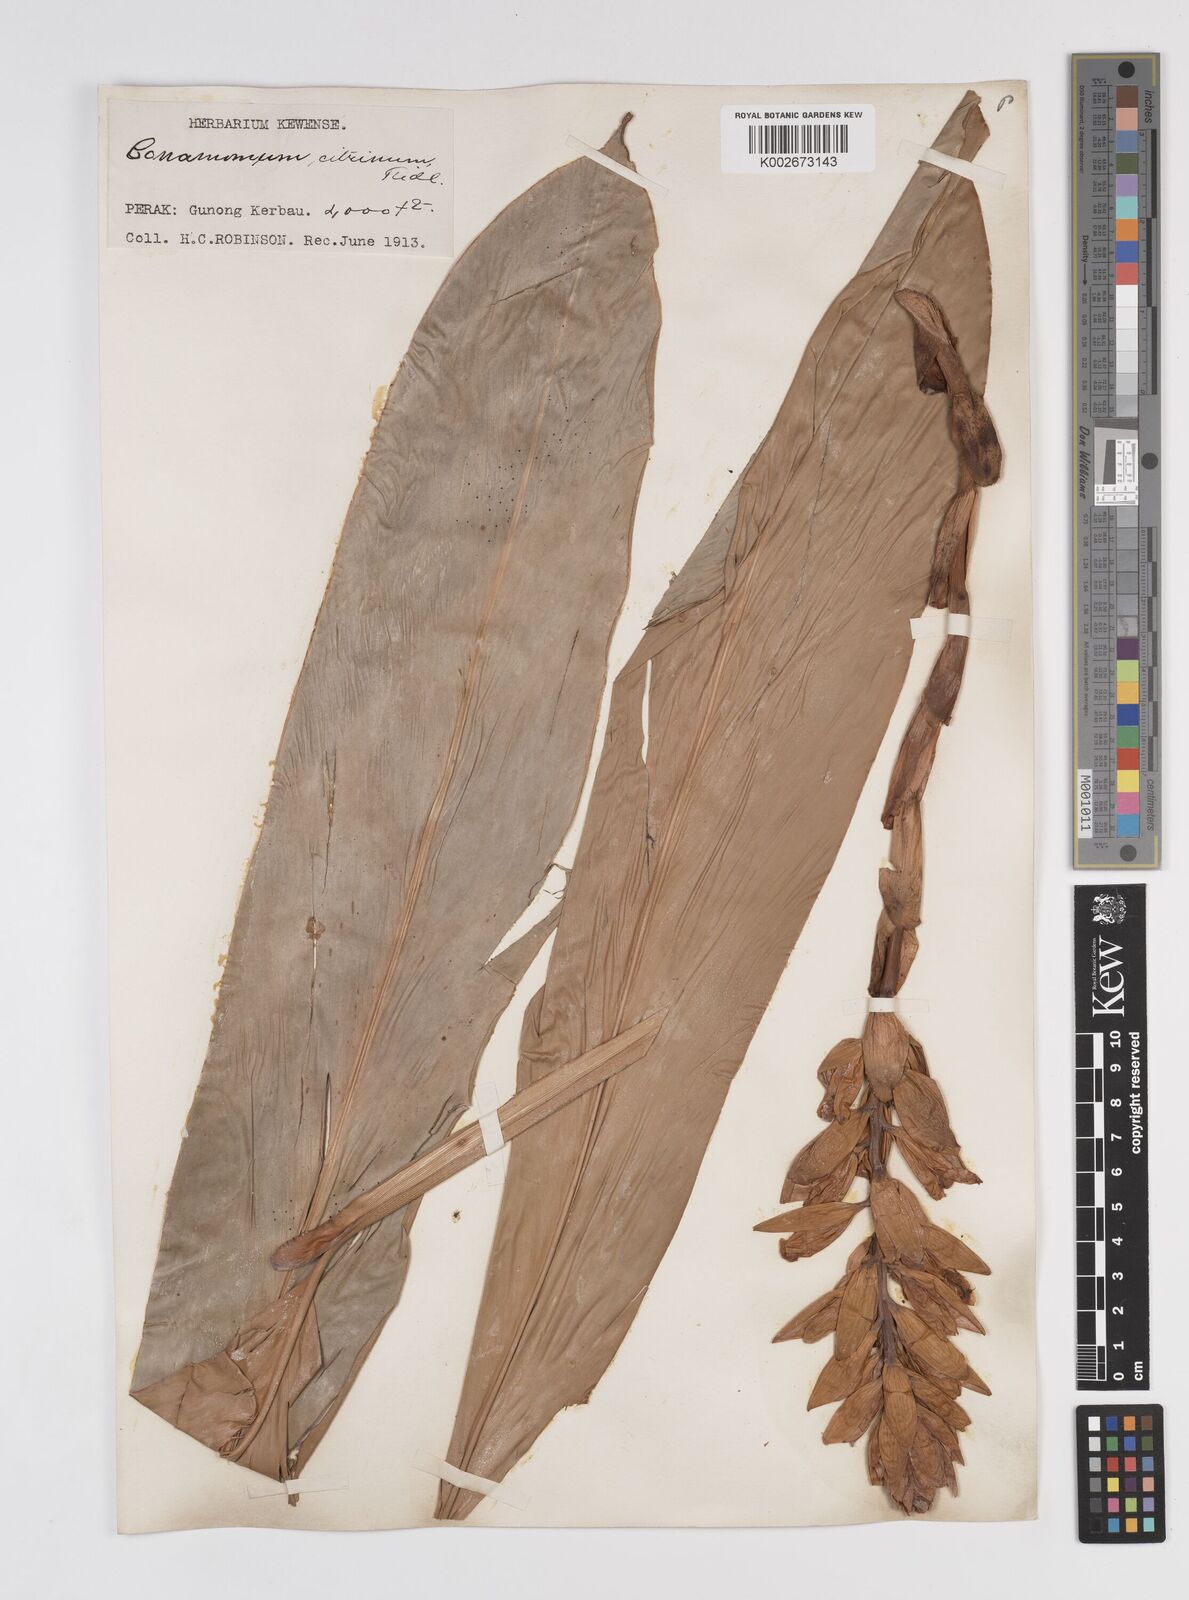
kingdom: Plantae
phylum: Tracheophyta
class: Liliopsida
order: Zingiberales
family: Zingiberaceae
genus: Conamomum
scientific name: Conamomum citrinum
